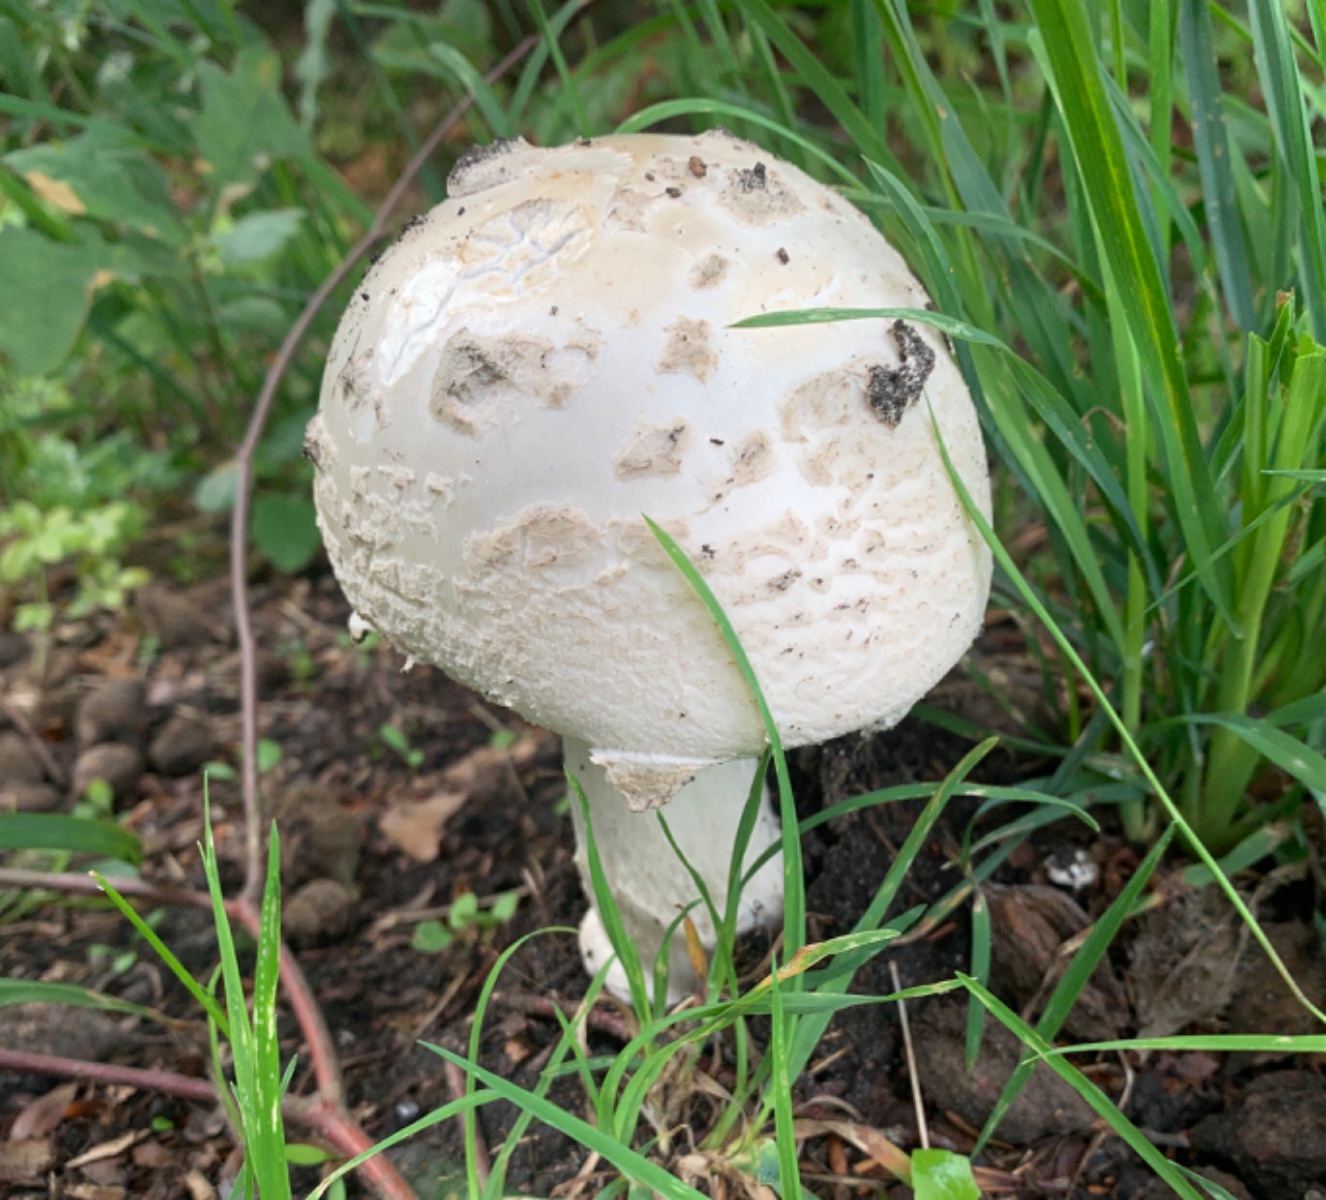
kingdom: Fungi
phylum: Basidiomycota
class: Agaricomycetes
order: Agaricales
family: Amanitaceae
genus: Amanita
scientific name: Amanita
